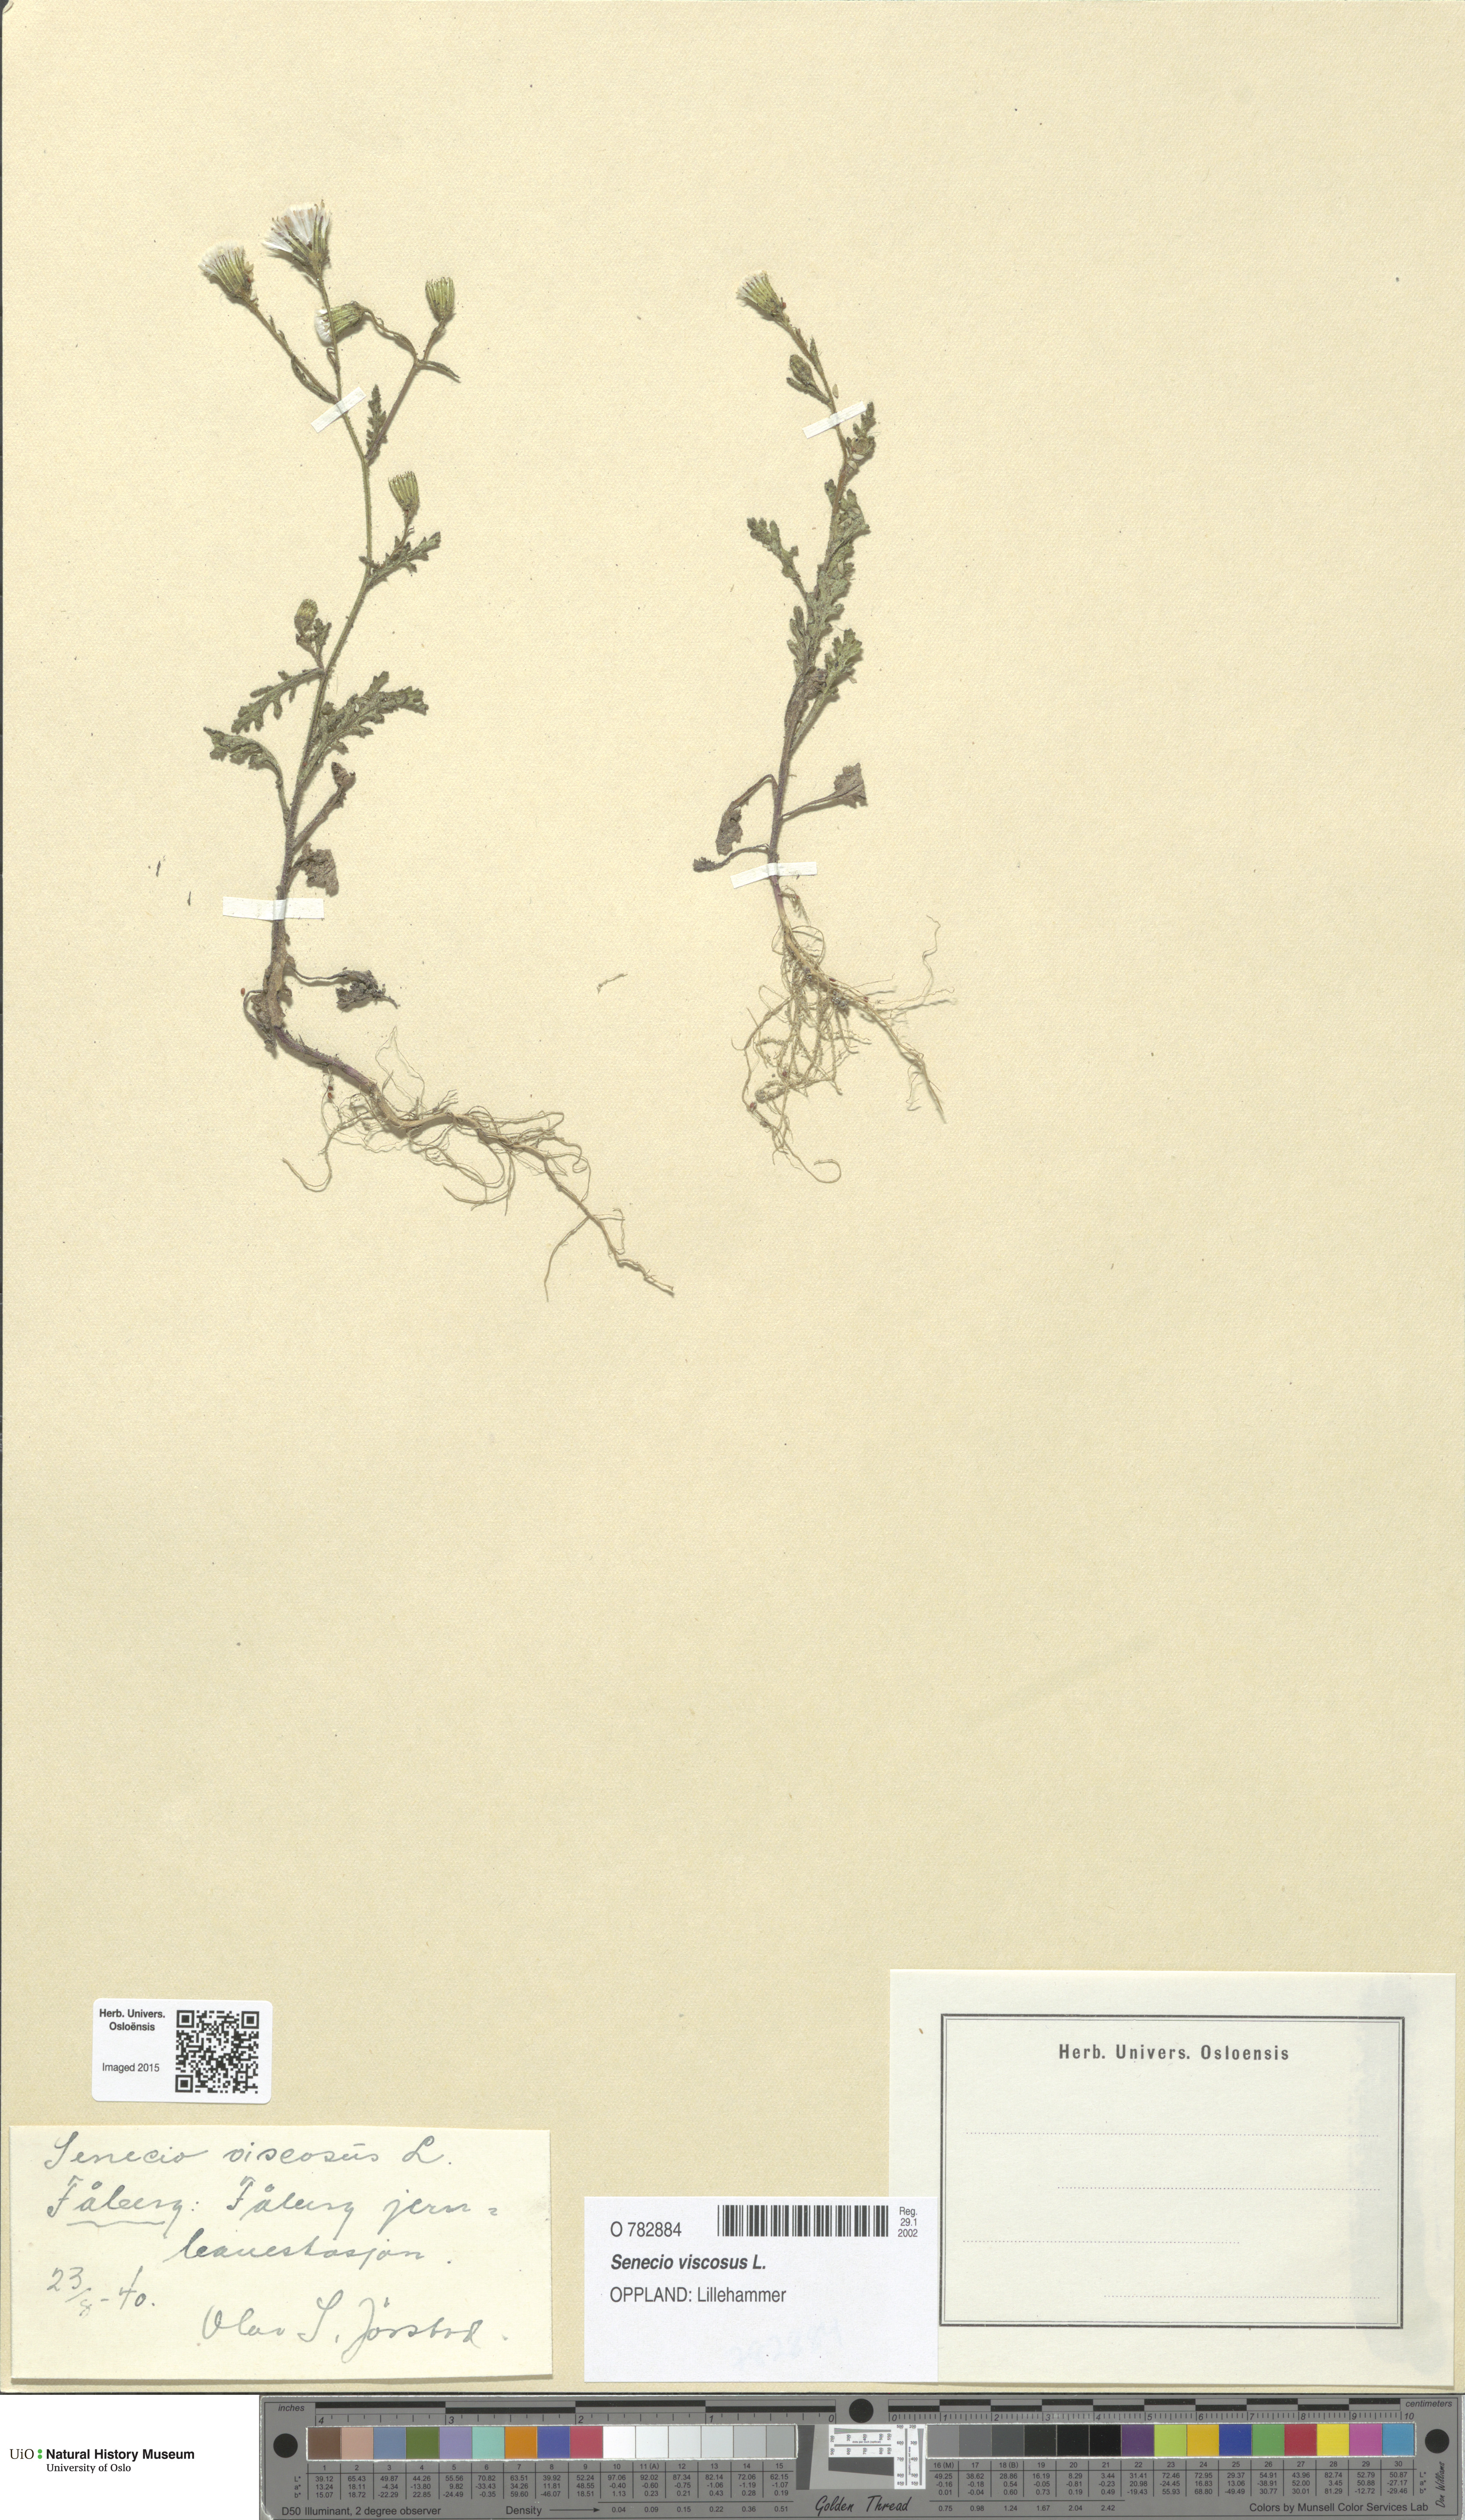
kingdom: Plantae
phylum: Tracheophyta
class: Magnoliopsida
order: Asterales
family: Asteraceae
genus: Senecio
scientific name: Senecio viscosus
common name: Sticky groundsel
